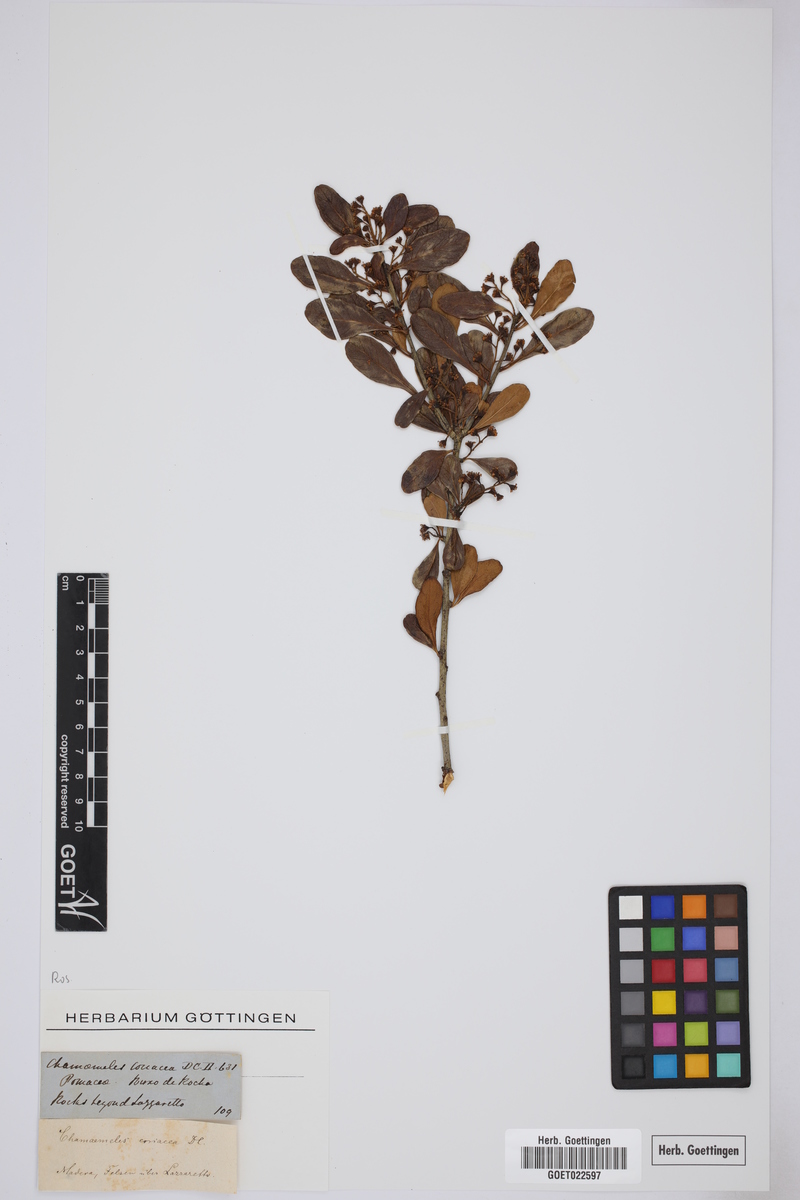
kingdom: Plantae
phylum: Tracheophyta
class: Magnoliopsida
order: Rosales
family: Rosaceae
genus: Chamaemeles
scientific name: Chamaemeles coriacea
